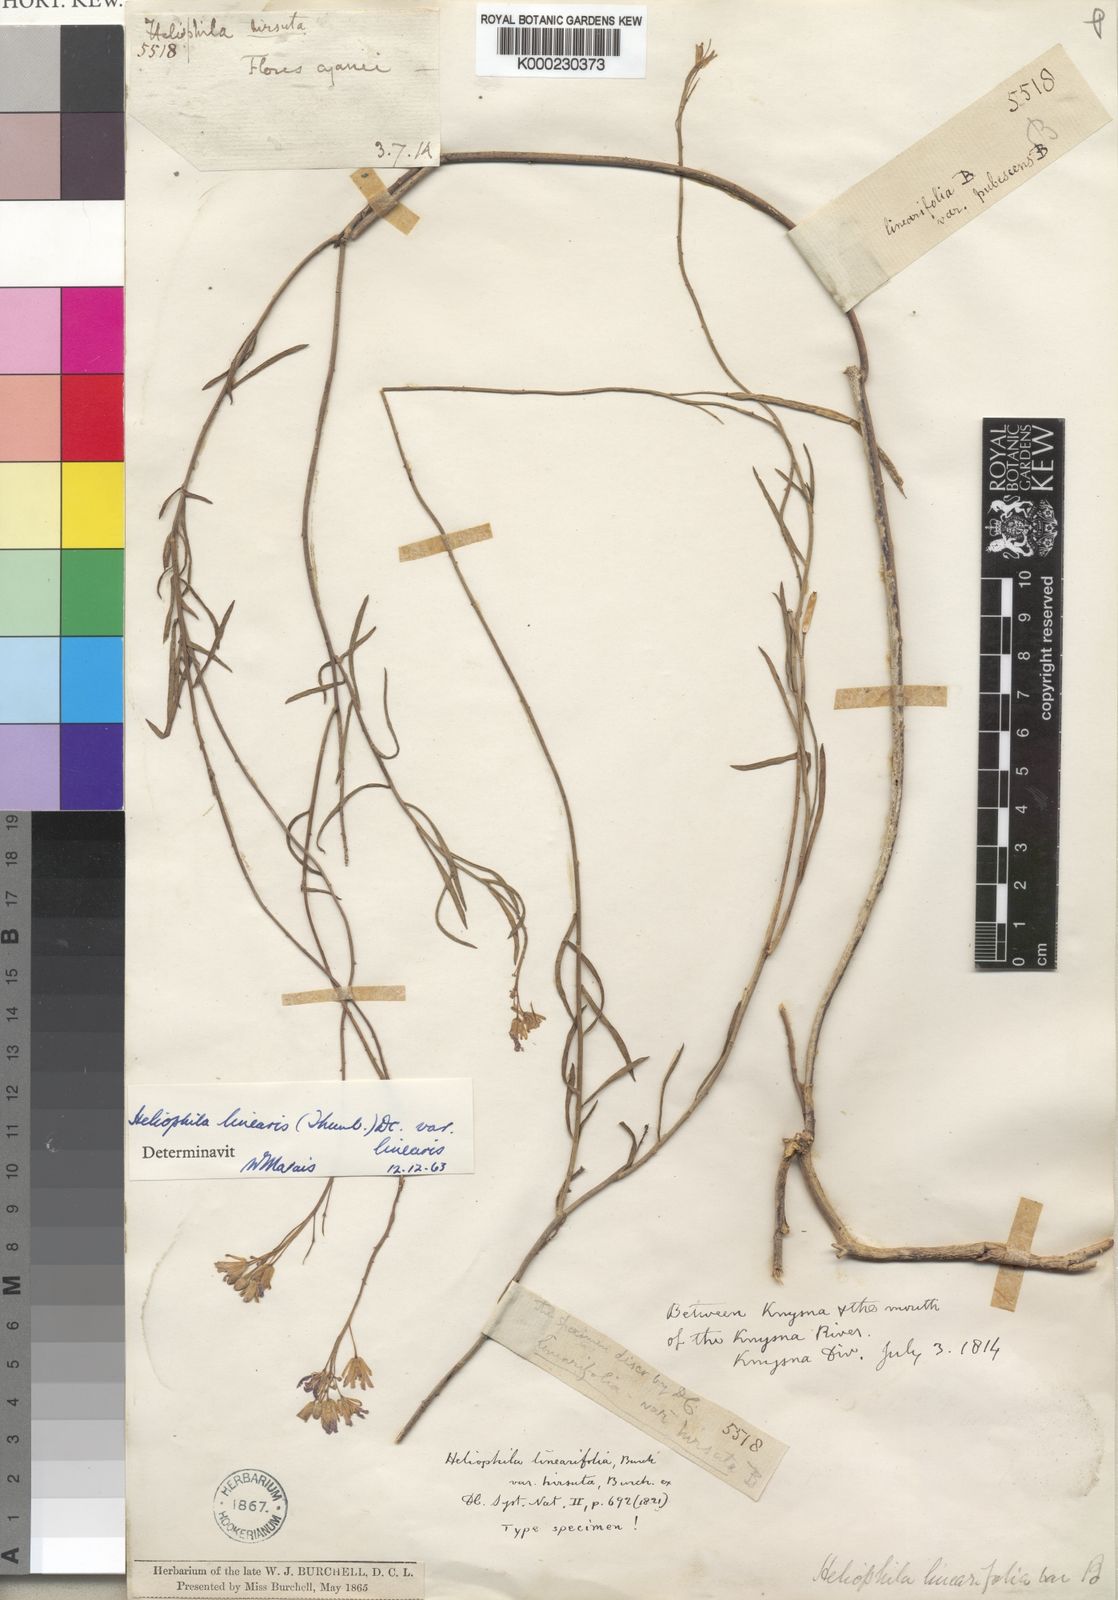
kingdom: Plantae
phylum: Tracheophyta
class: Magnoliopsida
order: Brassicales
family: Brassicaceae
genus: Heliophila
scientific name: Heliophila linearis
